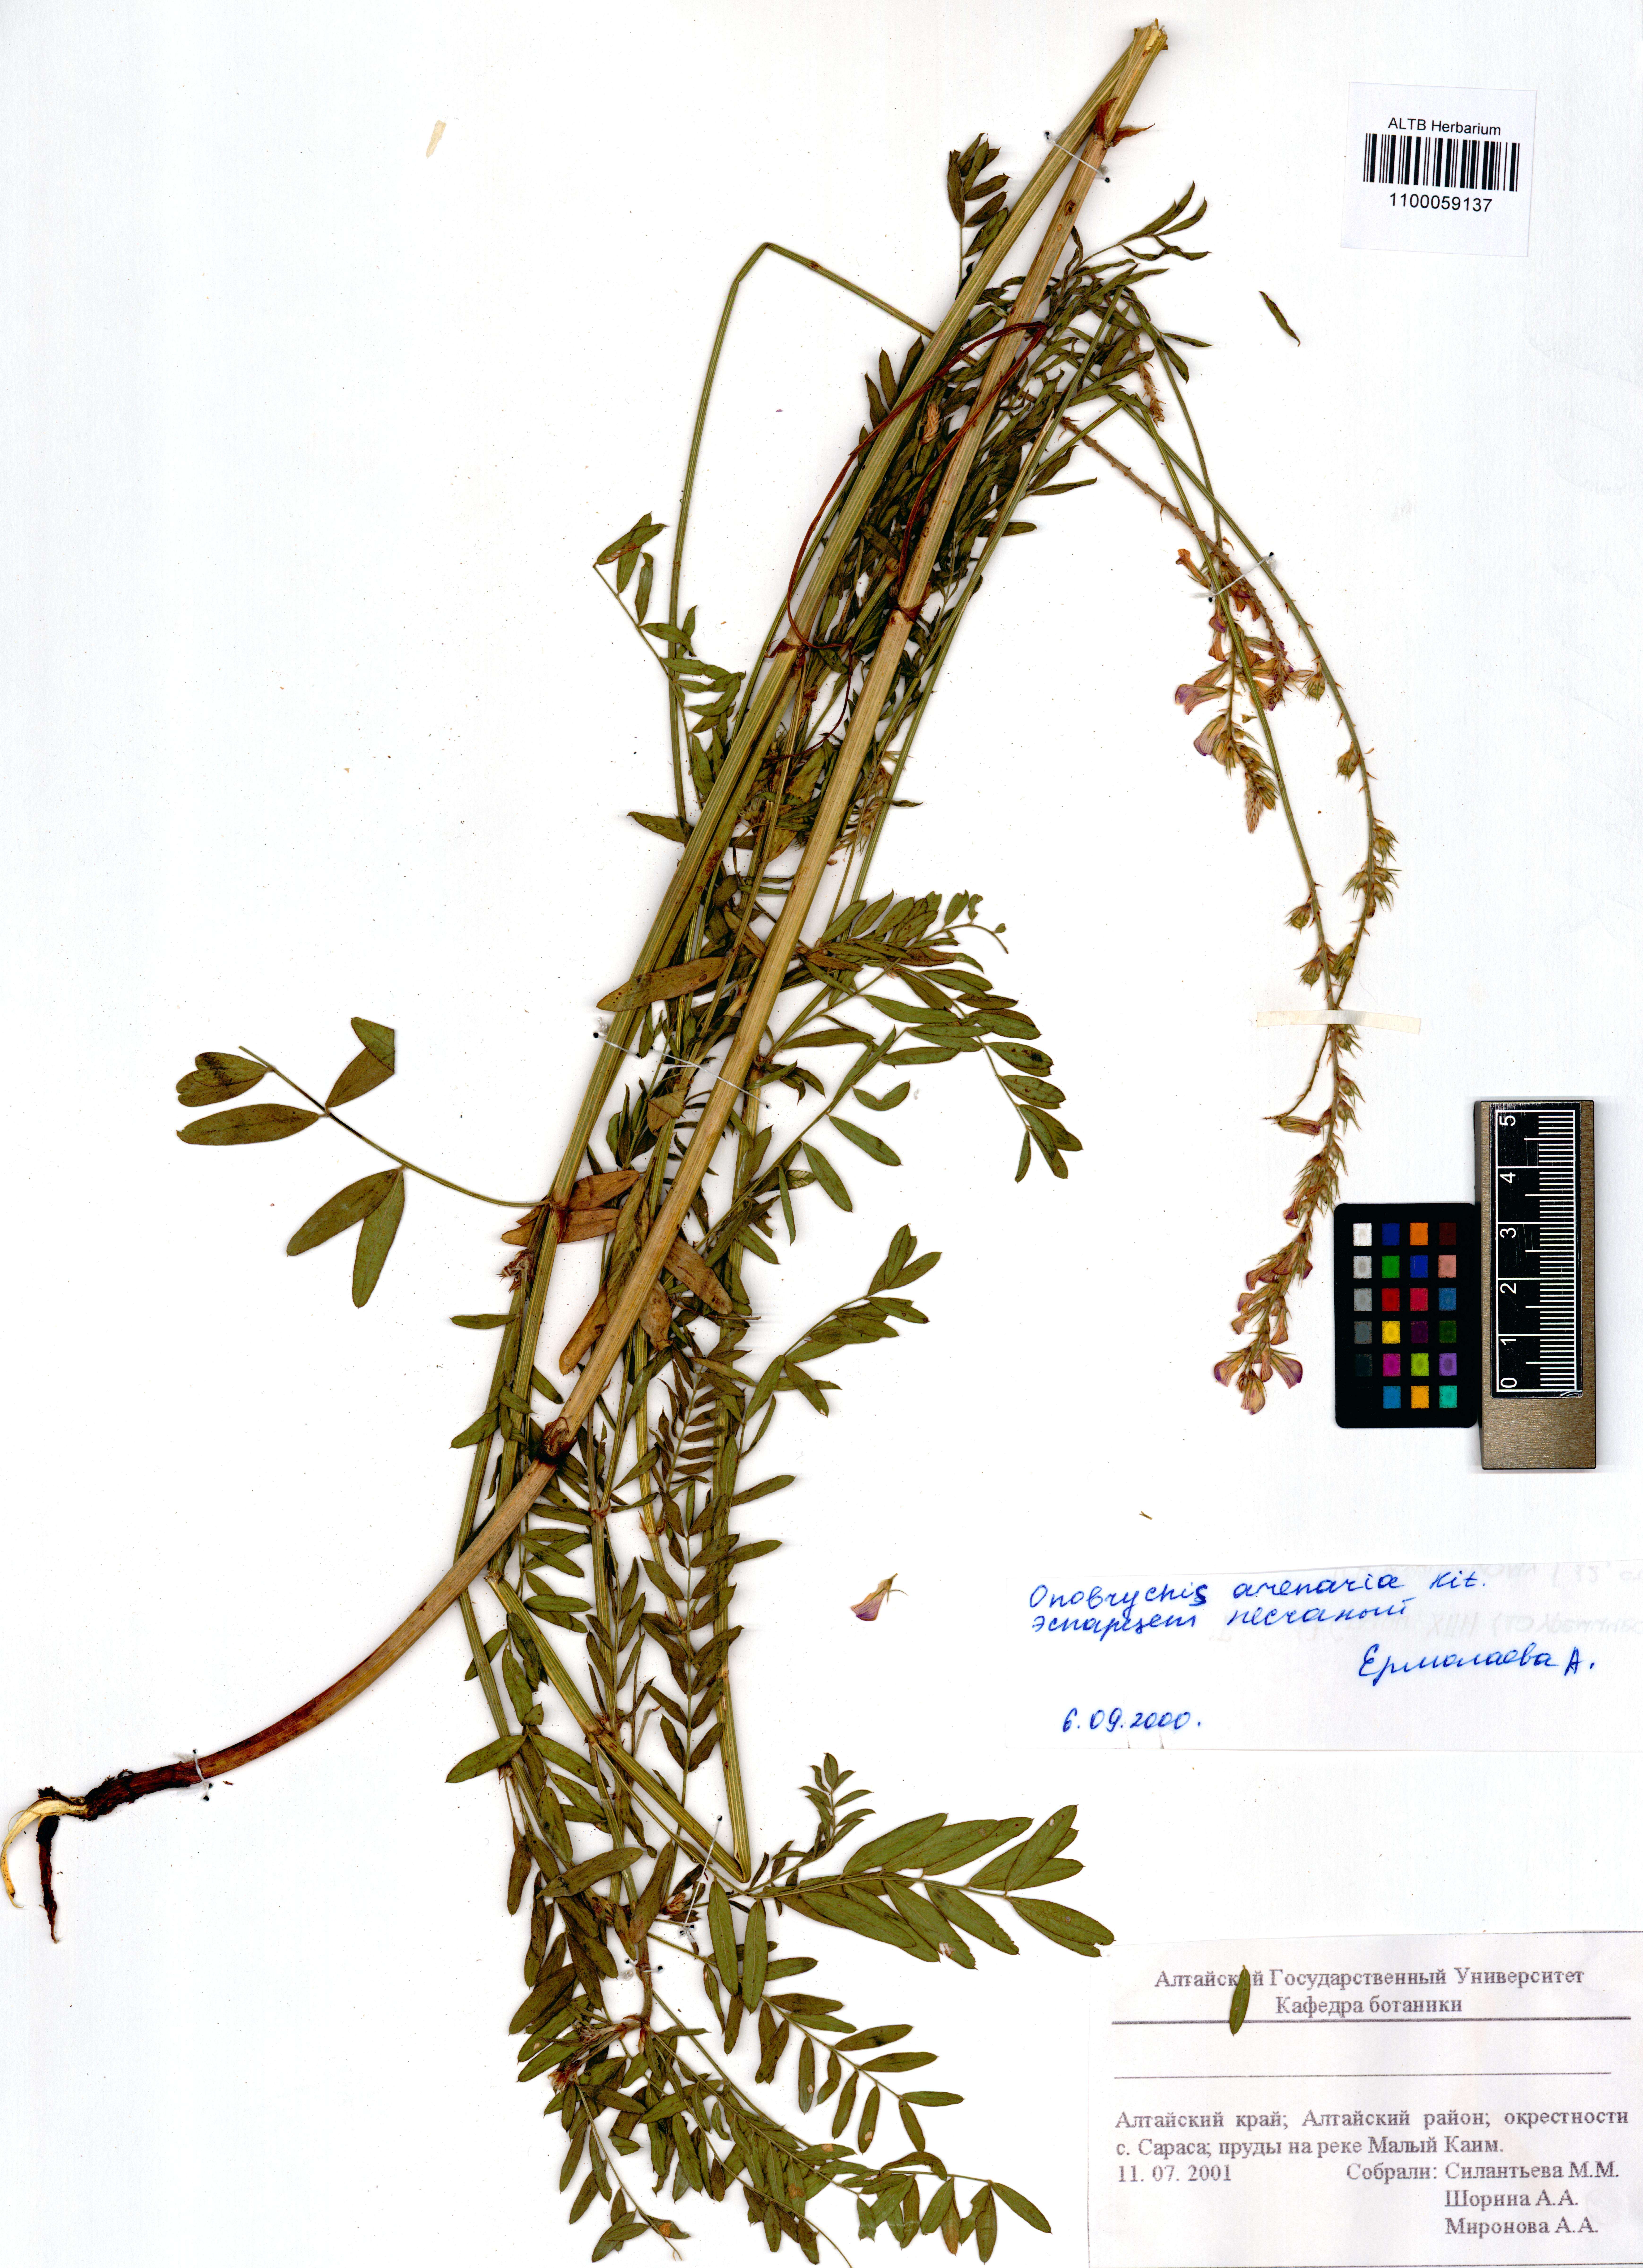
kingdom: Plantae
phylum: Tracheophyta
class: Magnoliopsida
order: Fabales
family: Fabaceae
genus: Onobrychis
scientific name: Onobrychis arenaria
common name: Sand esparcet
